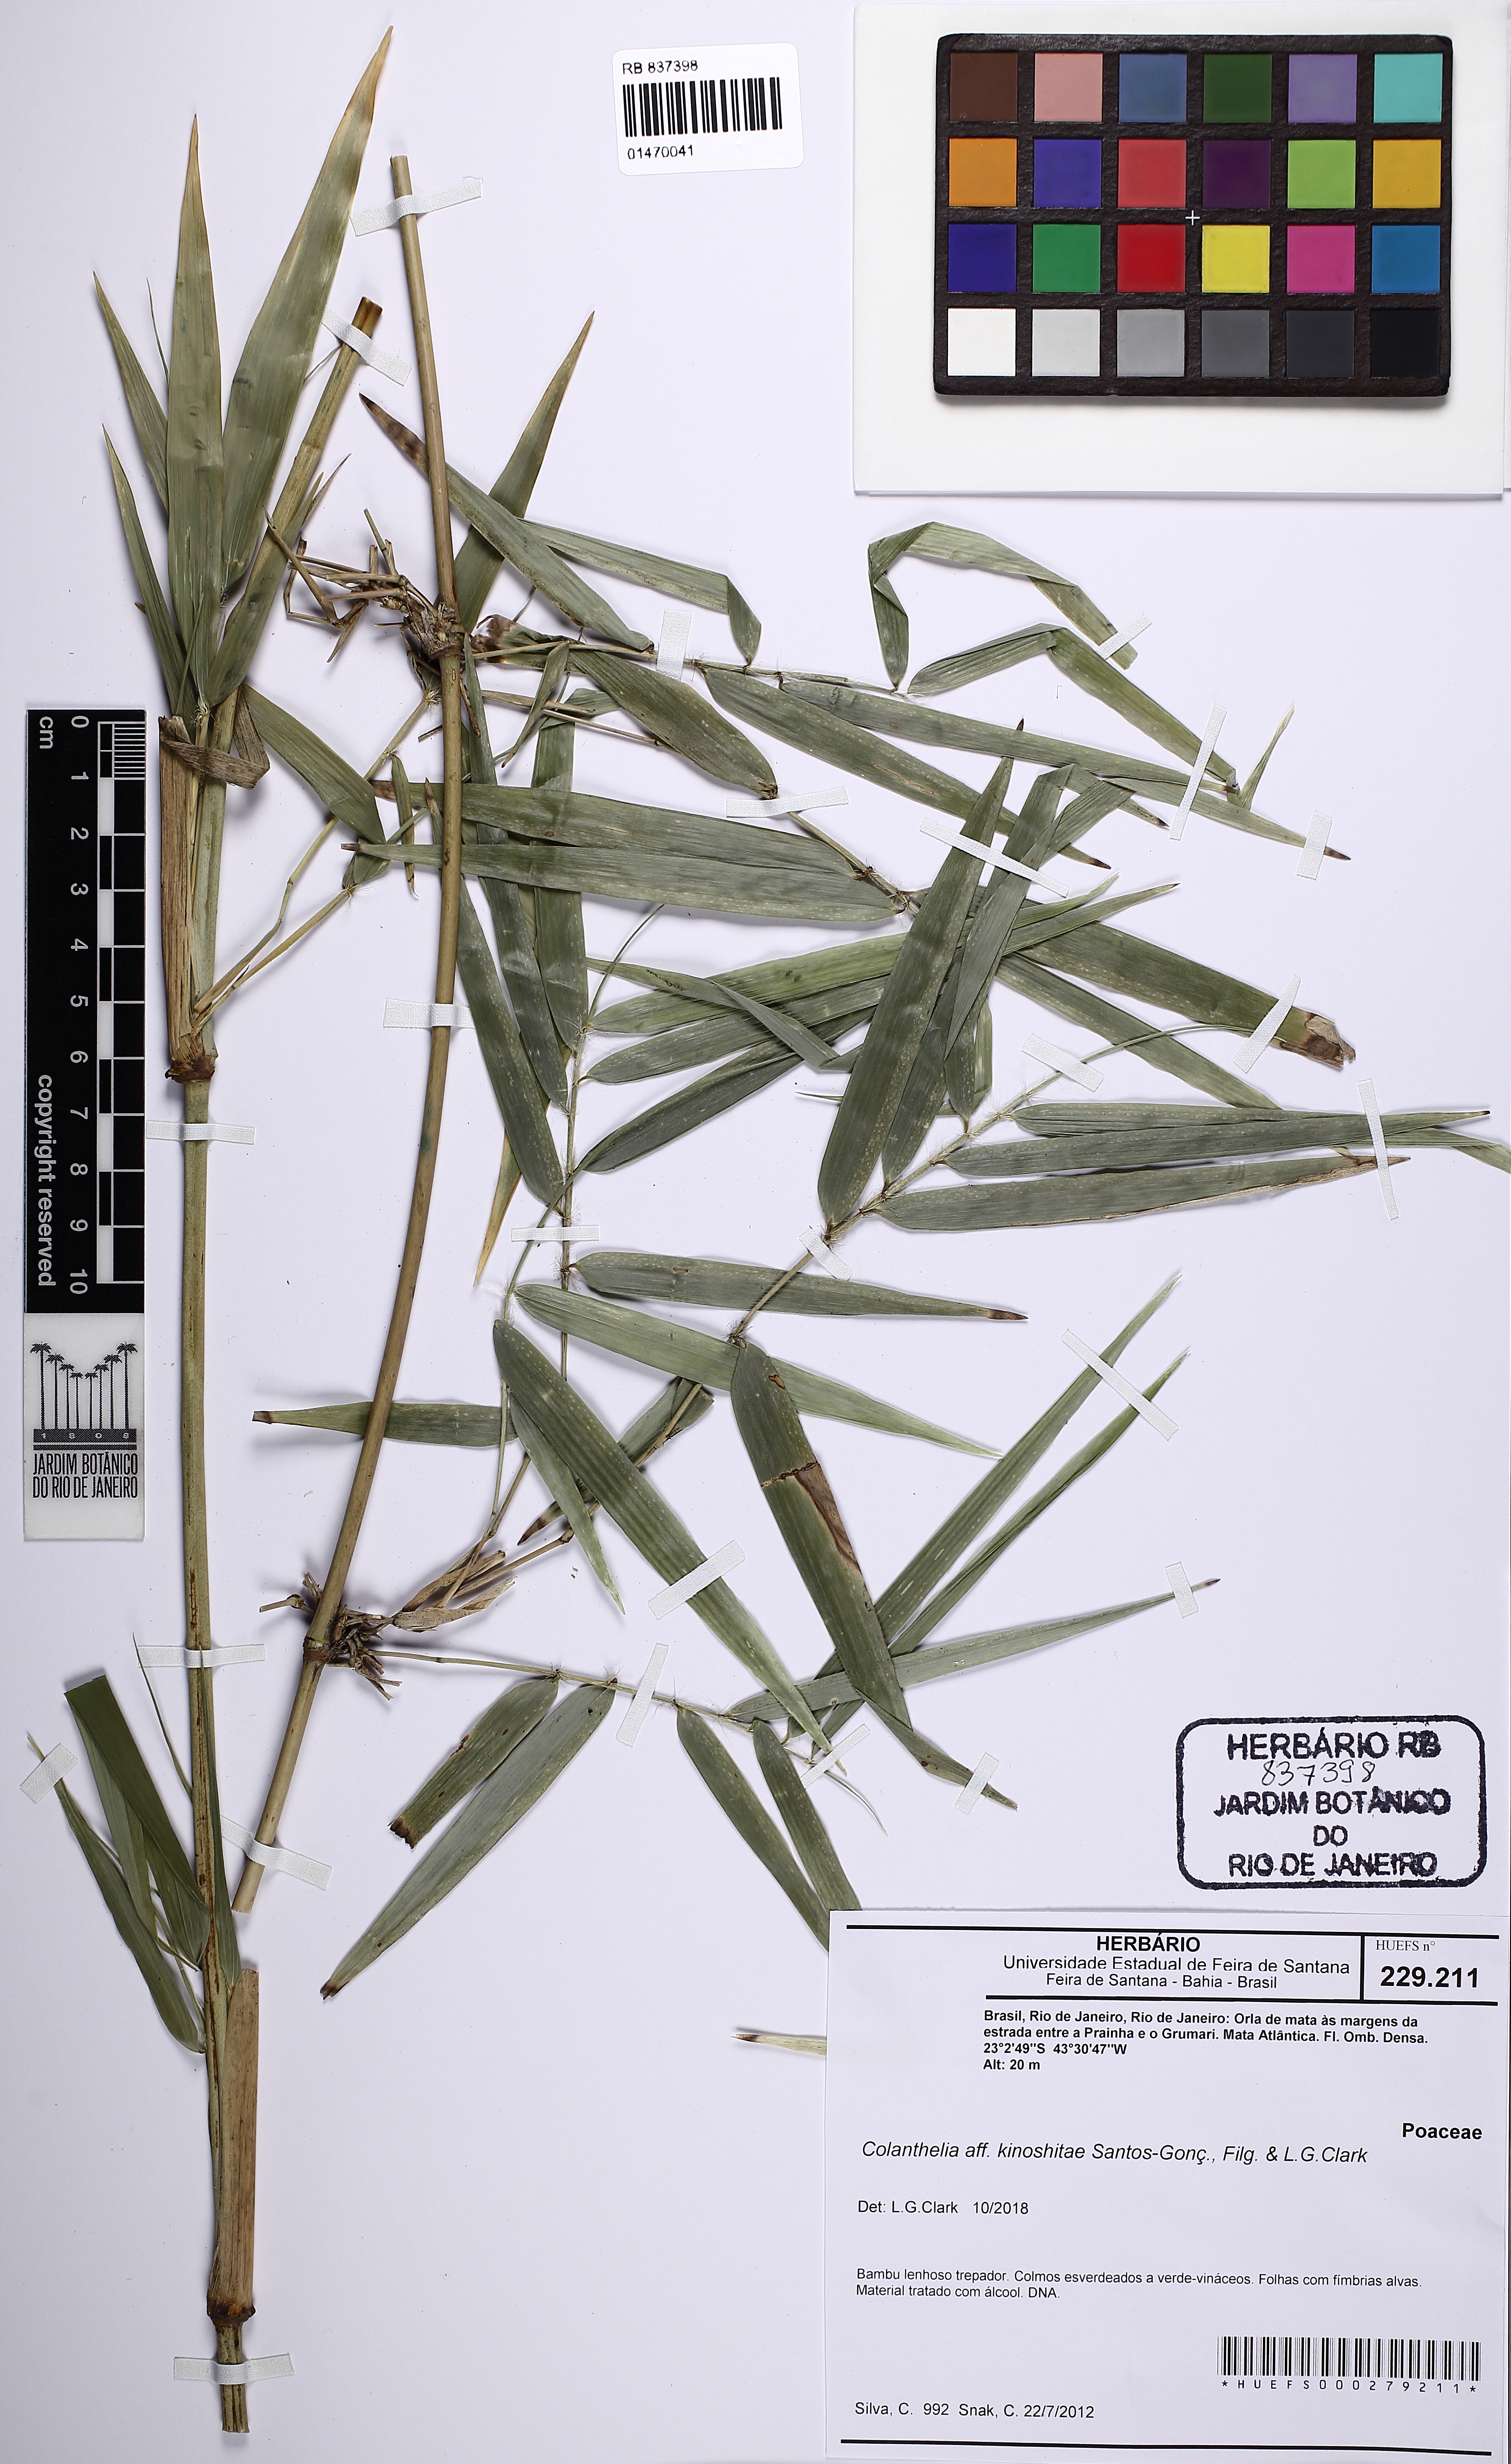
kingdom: Plantae
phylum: Tracheophyta
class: Liliopsida
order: Poales
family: Poaceae
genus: Colanthelia
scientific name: Colanthelia kinoshitae
